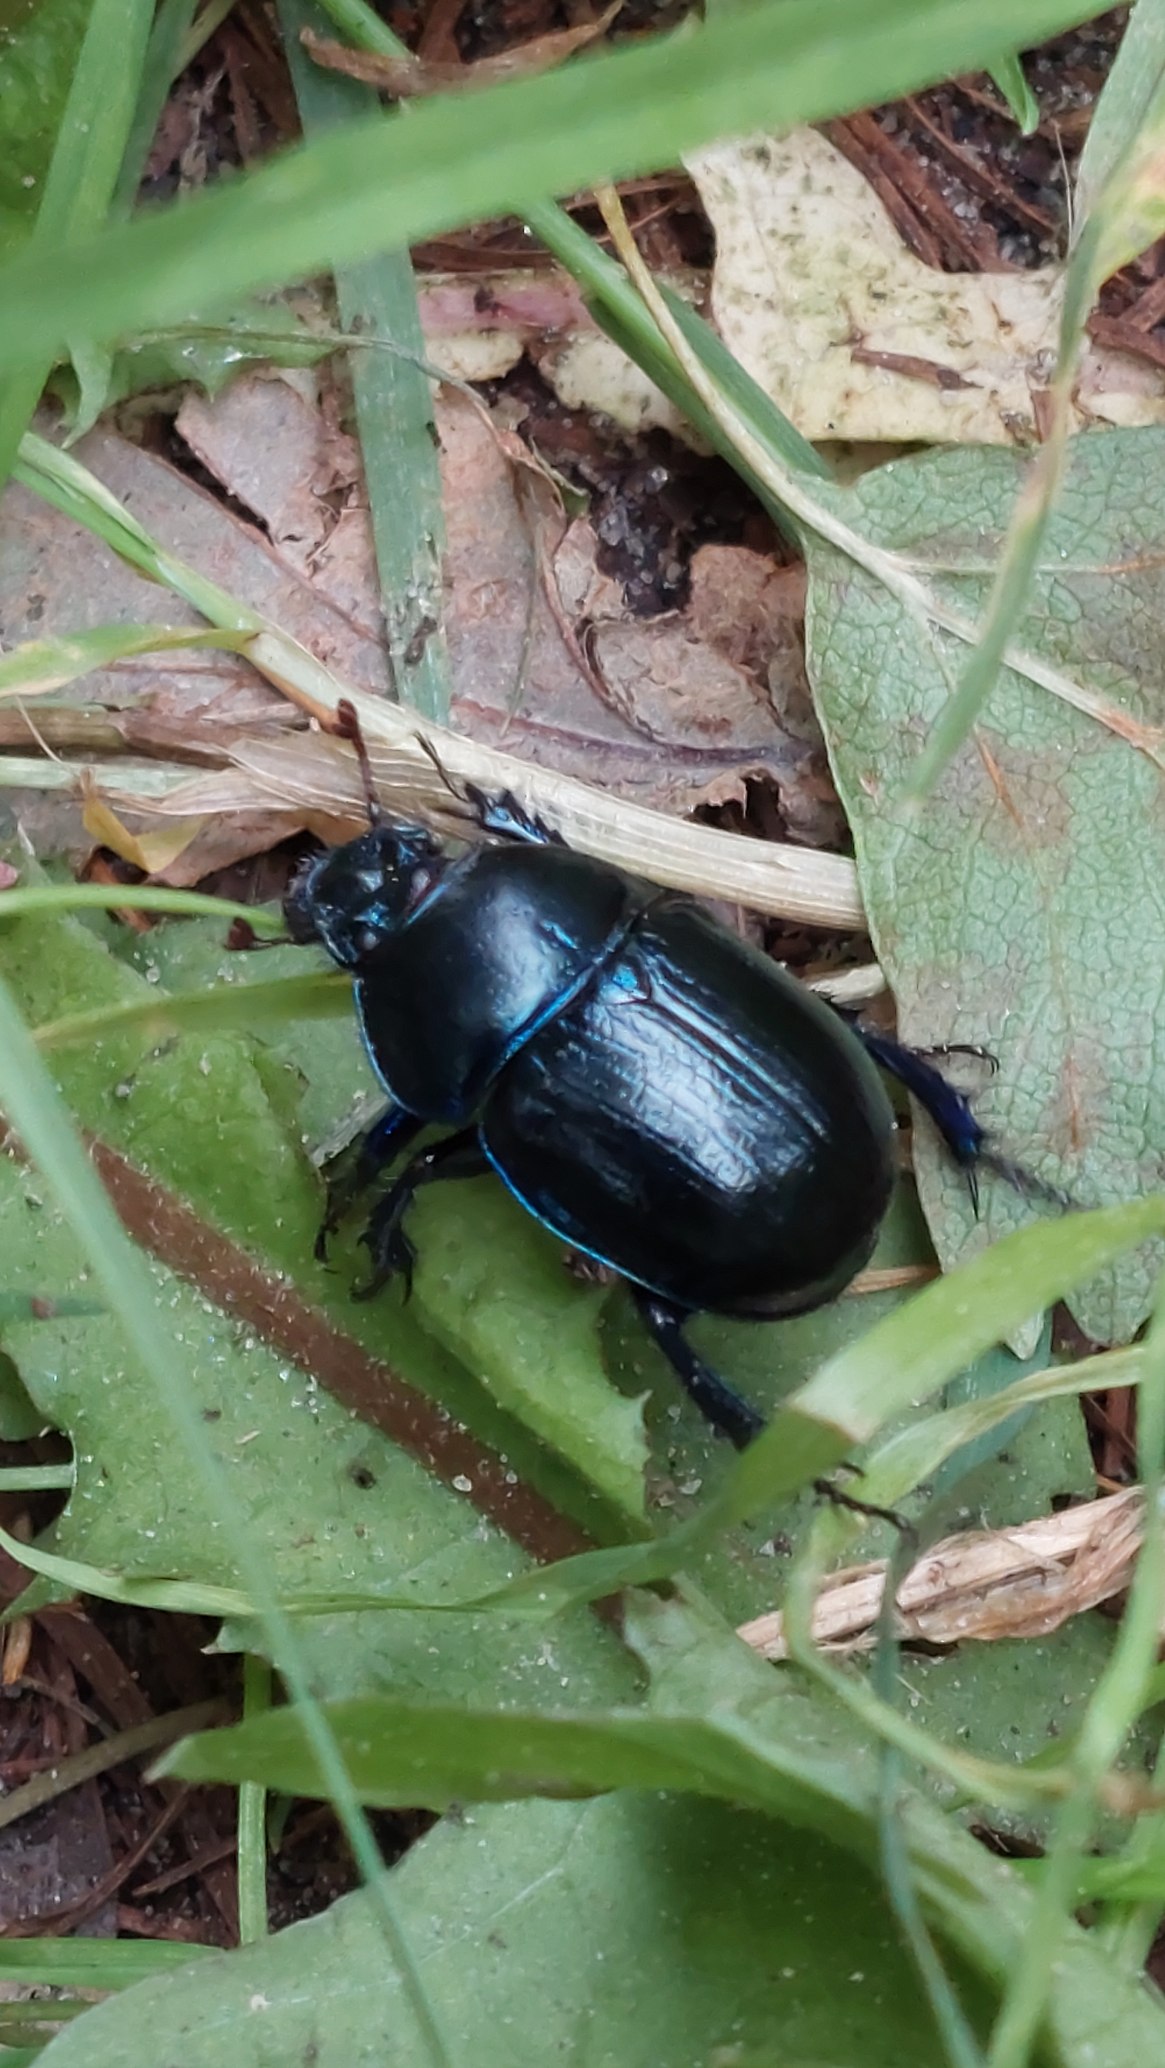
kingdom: Animalia
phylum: Arthropoda
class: Insecta
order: Coleoptera
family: Geotrupidae
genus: Anoplotrupes
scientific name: Anoplotrupes stercorosus
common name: Skovskarnbasse
